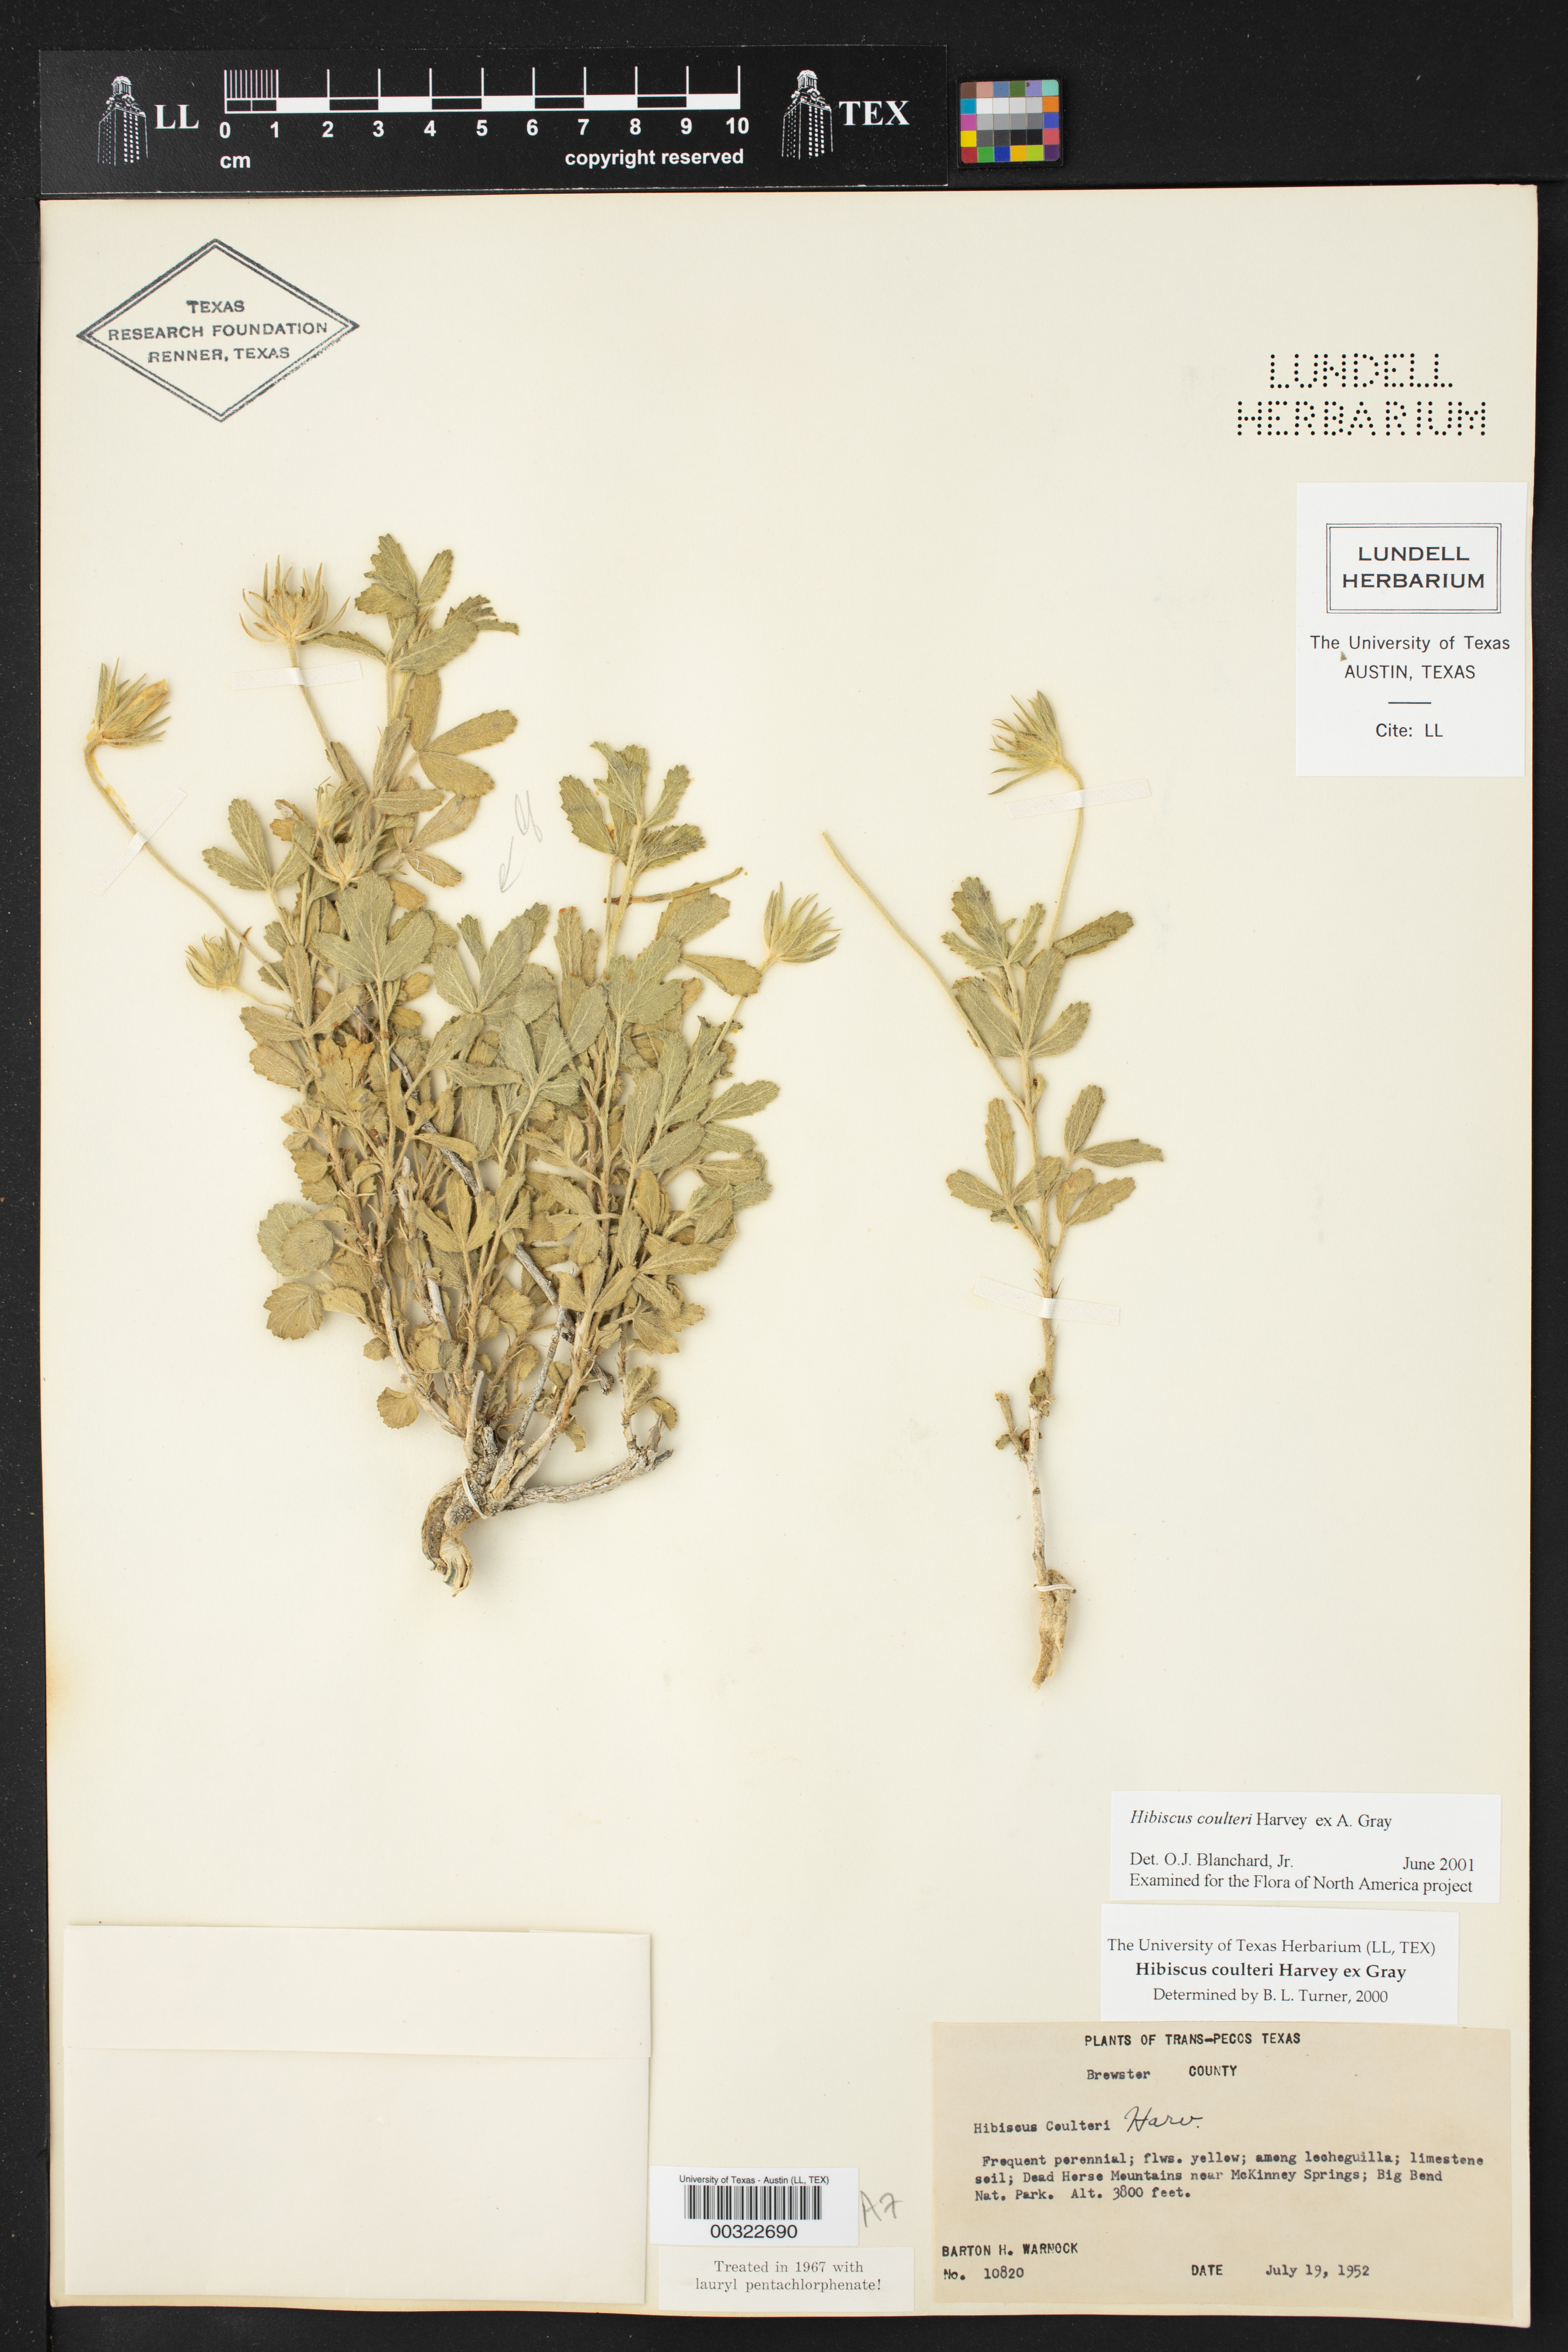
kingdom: Plantae
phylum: Tracheophyta
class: Magnoliopsida
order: Malvales
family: Malvaceae
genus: Hibiscus
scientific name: Hibiscus coulteri
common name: Desert rose-mallow
